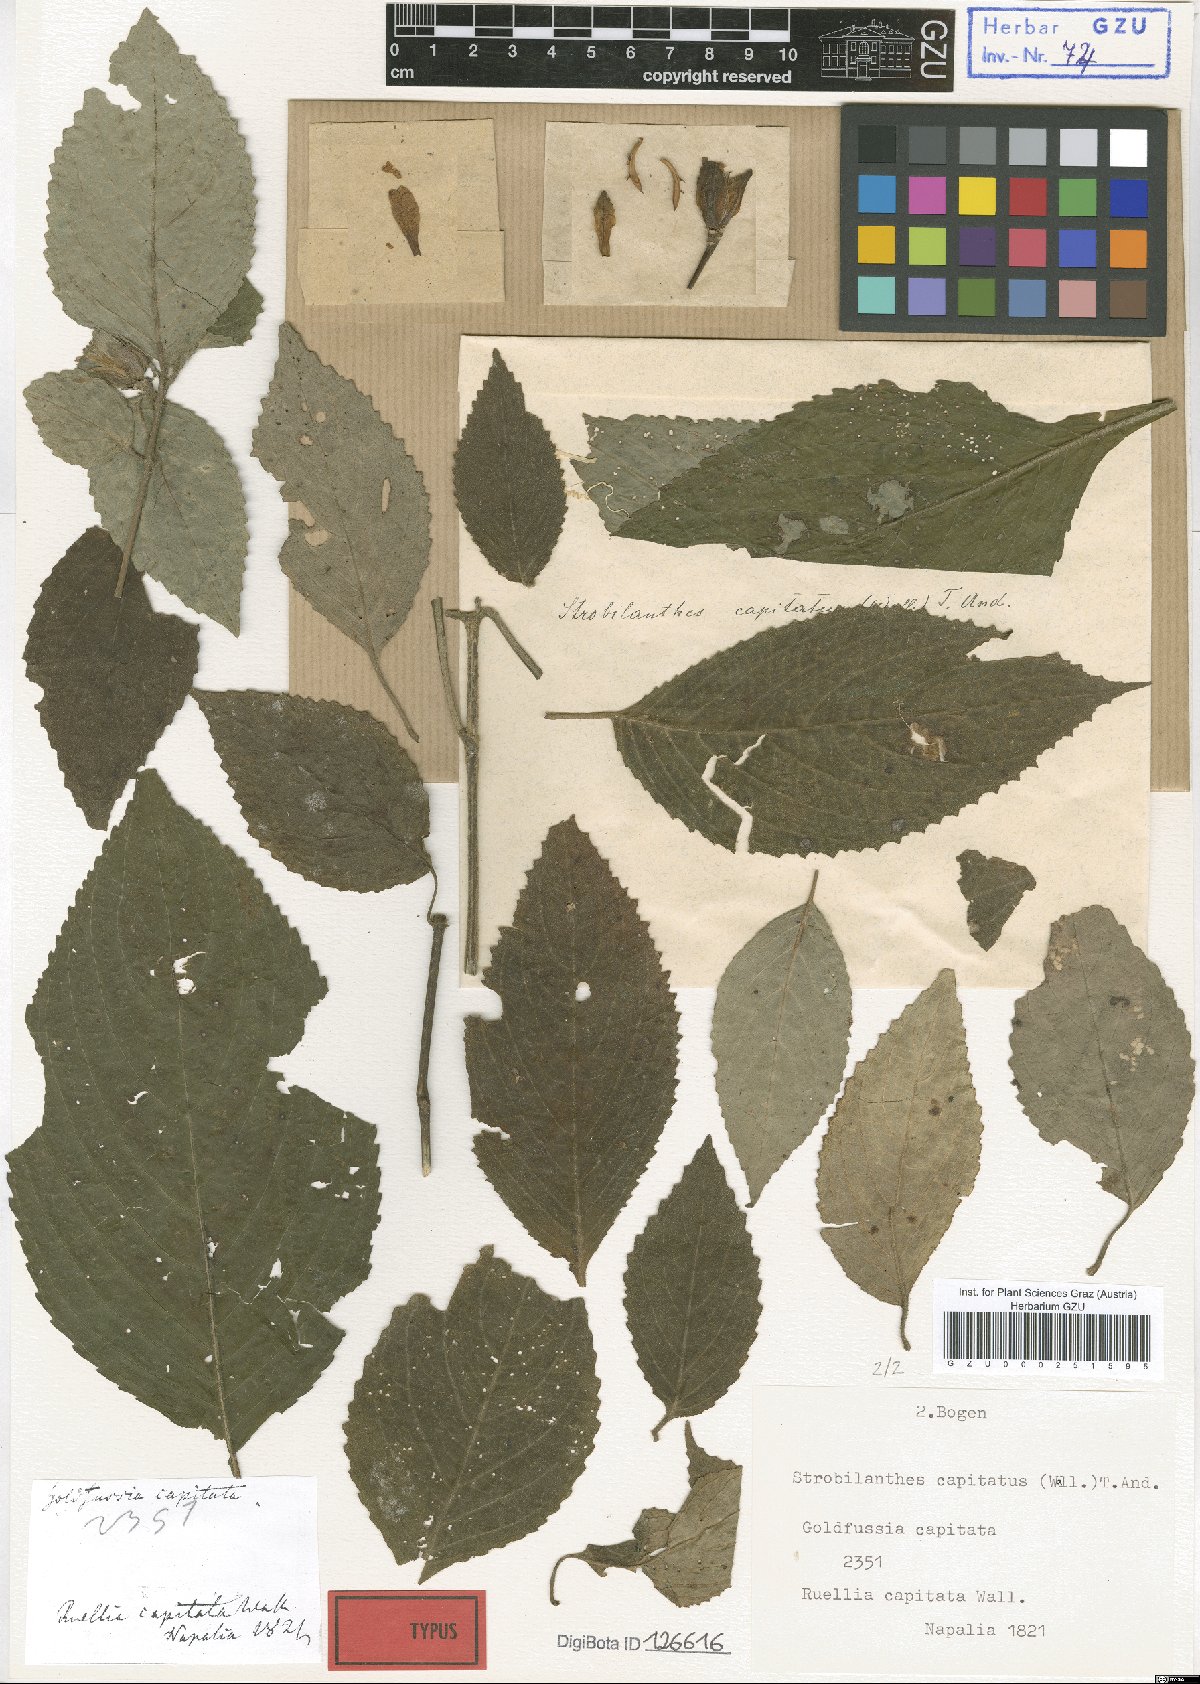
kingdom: Plantae
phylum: Tracheophyta
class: Magnoliopsida
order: Lamiales
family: Acanthaceae
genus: Strobilanthes
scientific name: Strobilanthes capitata
